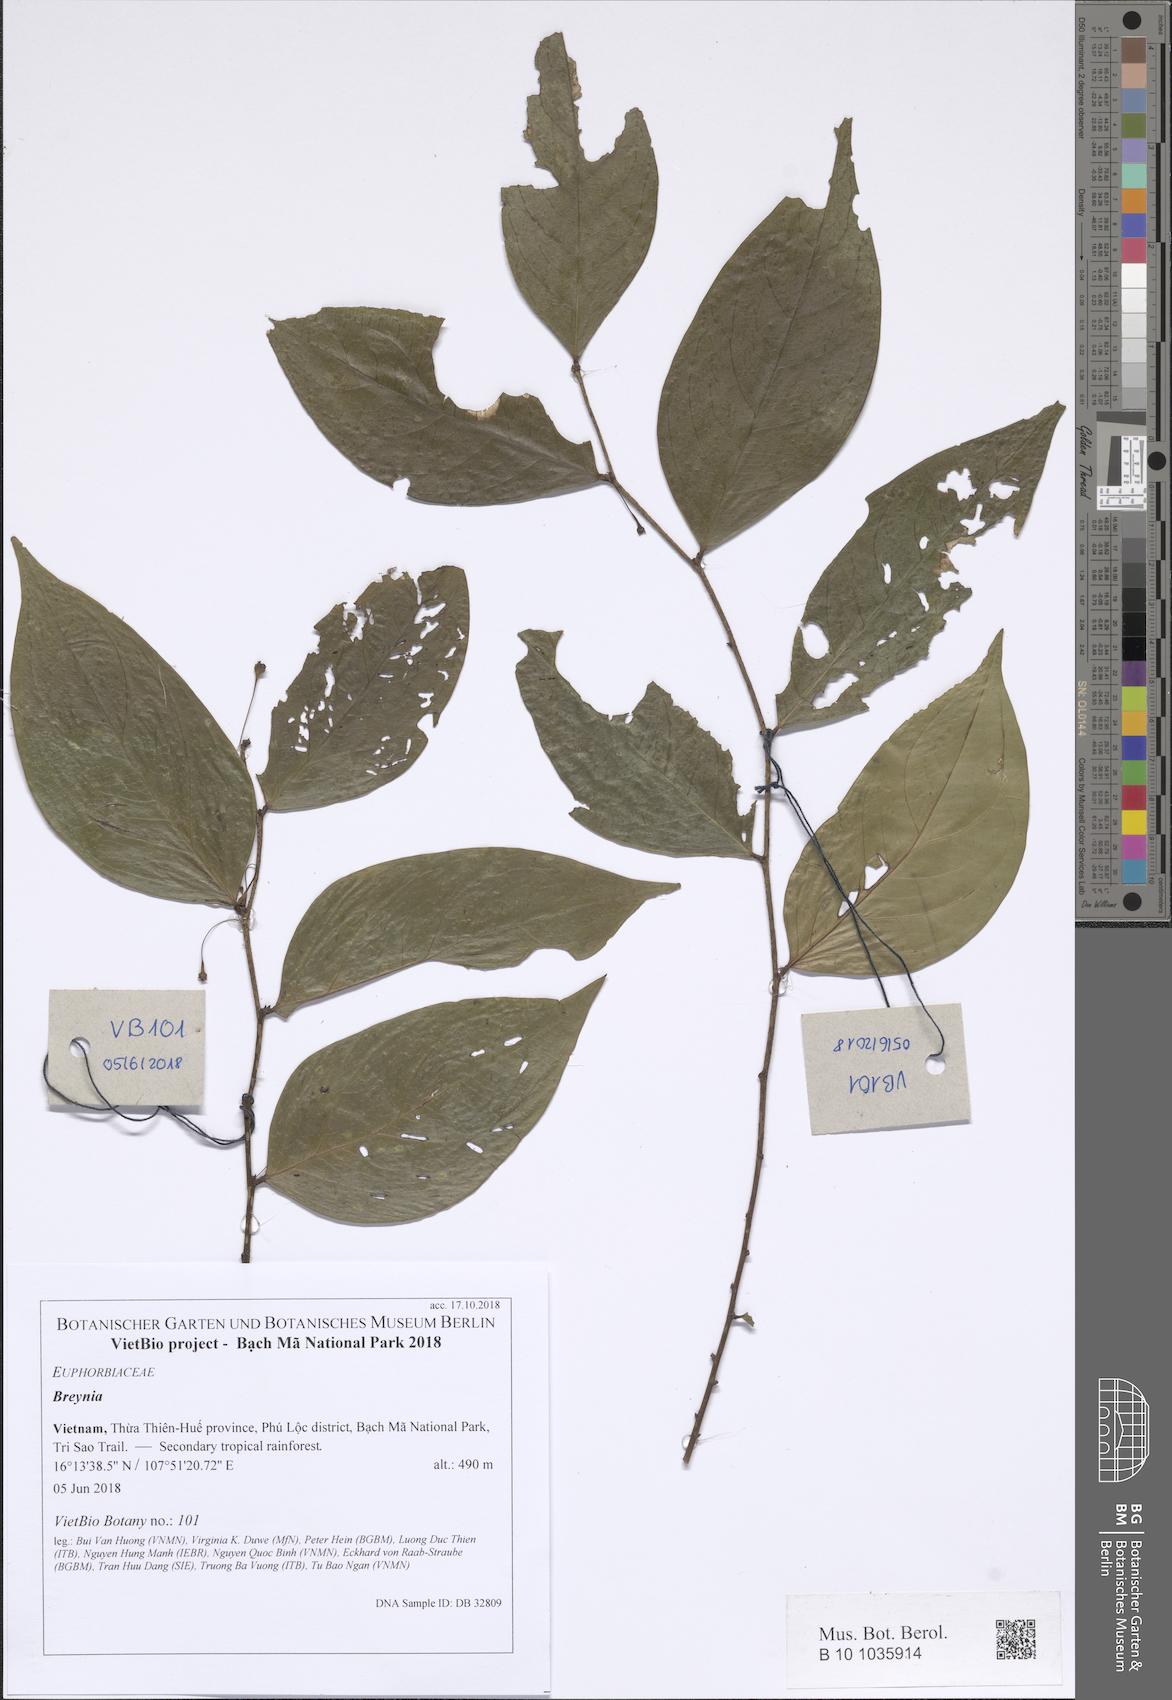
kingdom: Plantae
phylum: Tracheophyta
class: Magnoliopsida
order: Malpighiales
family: Phyllanthaceae
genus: Breynia
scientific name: Breynia
